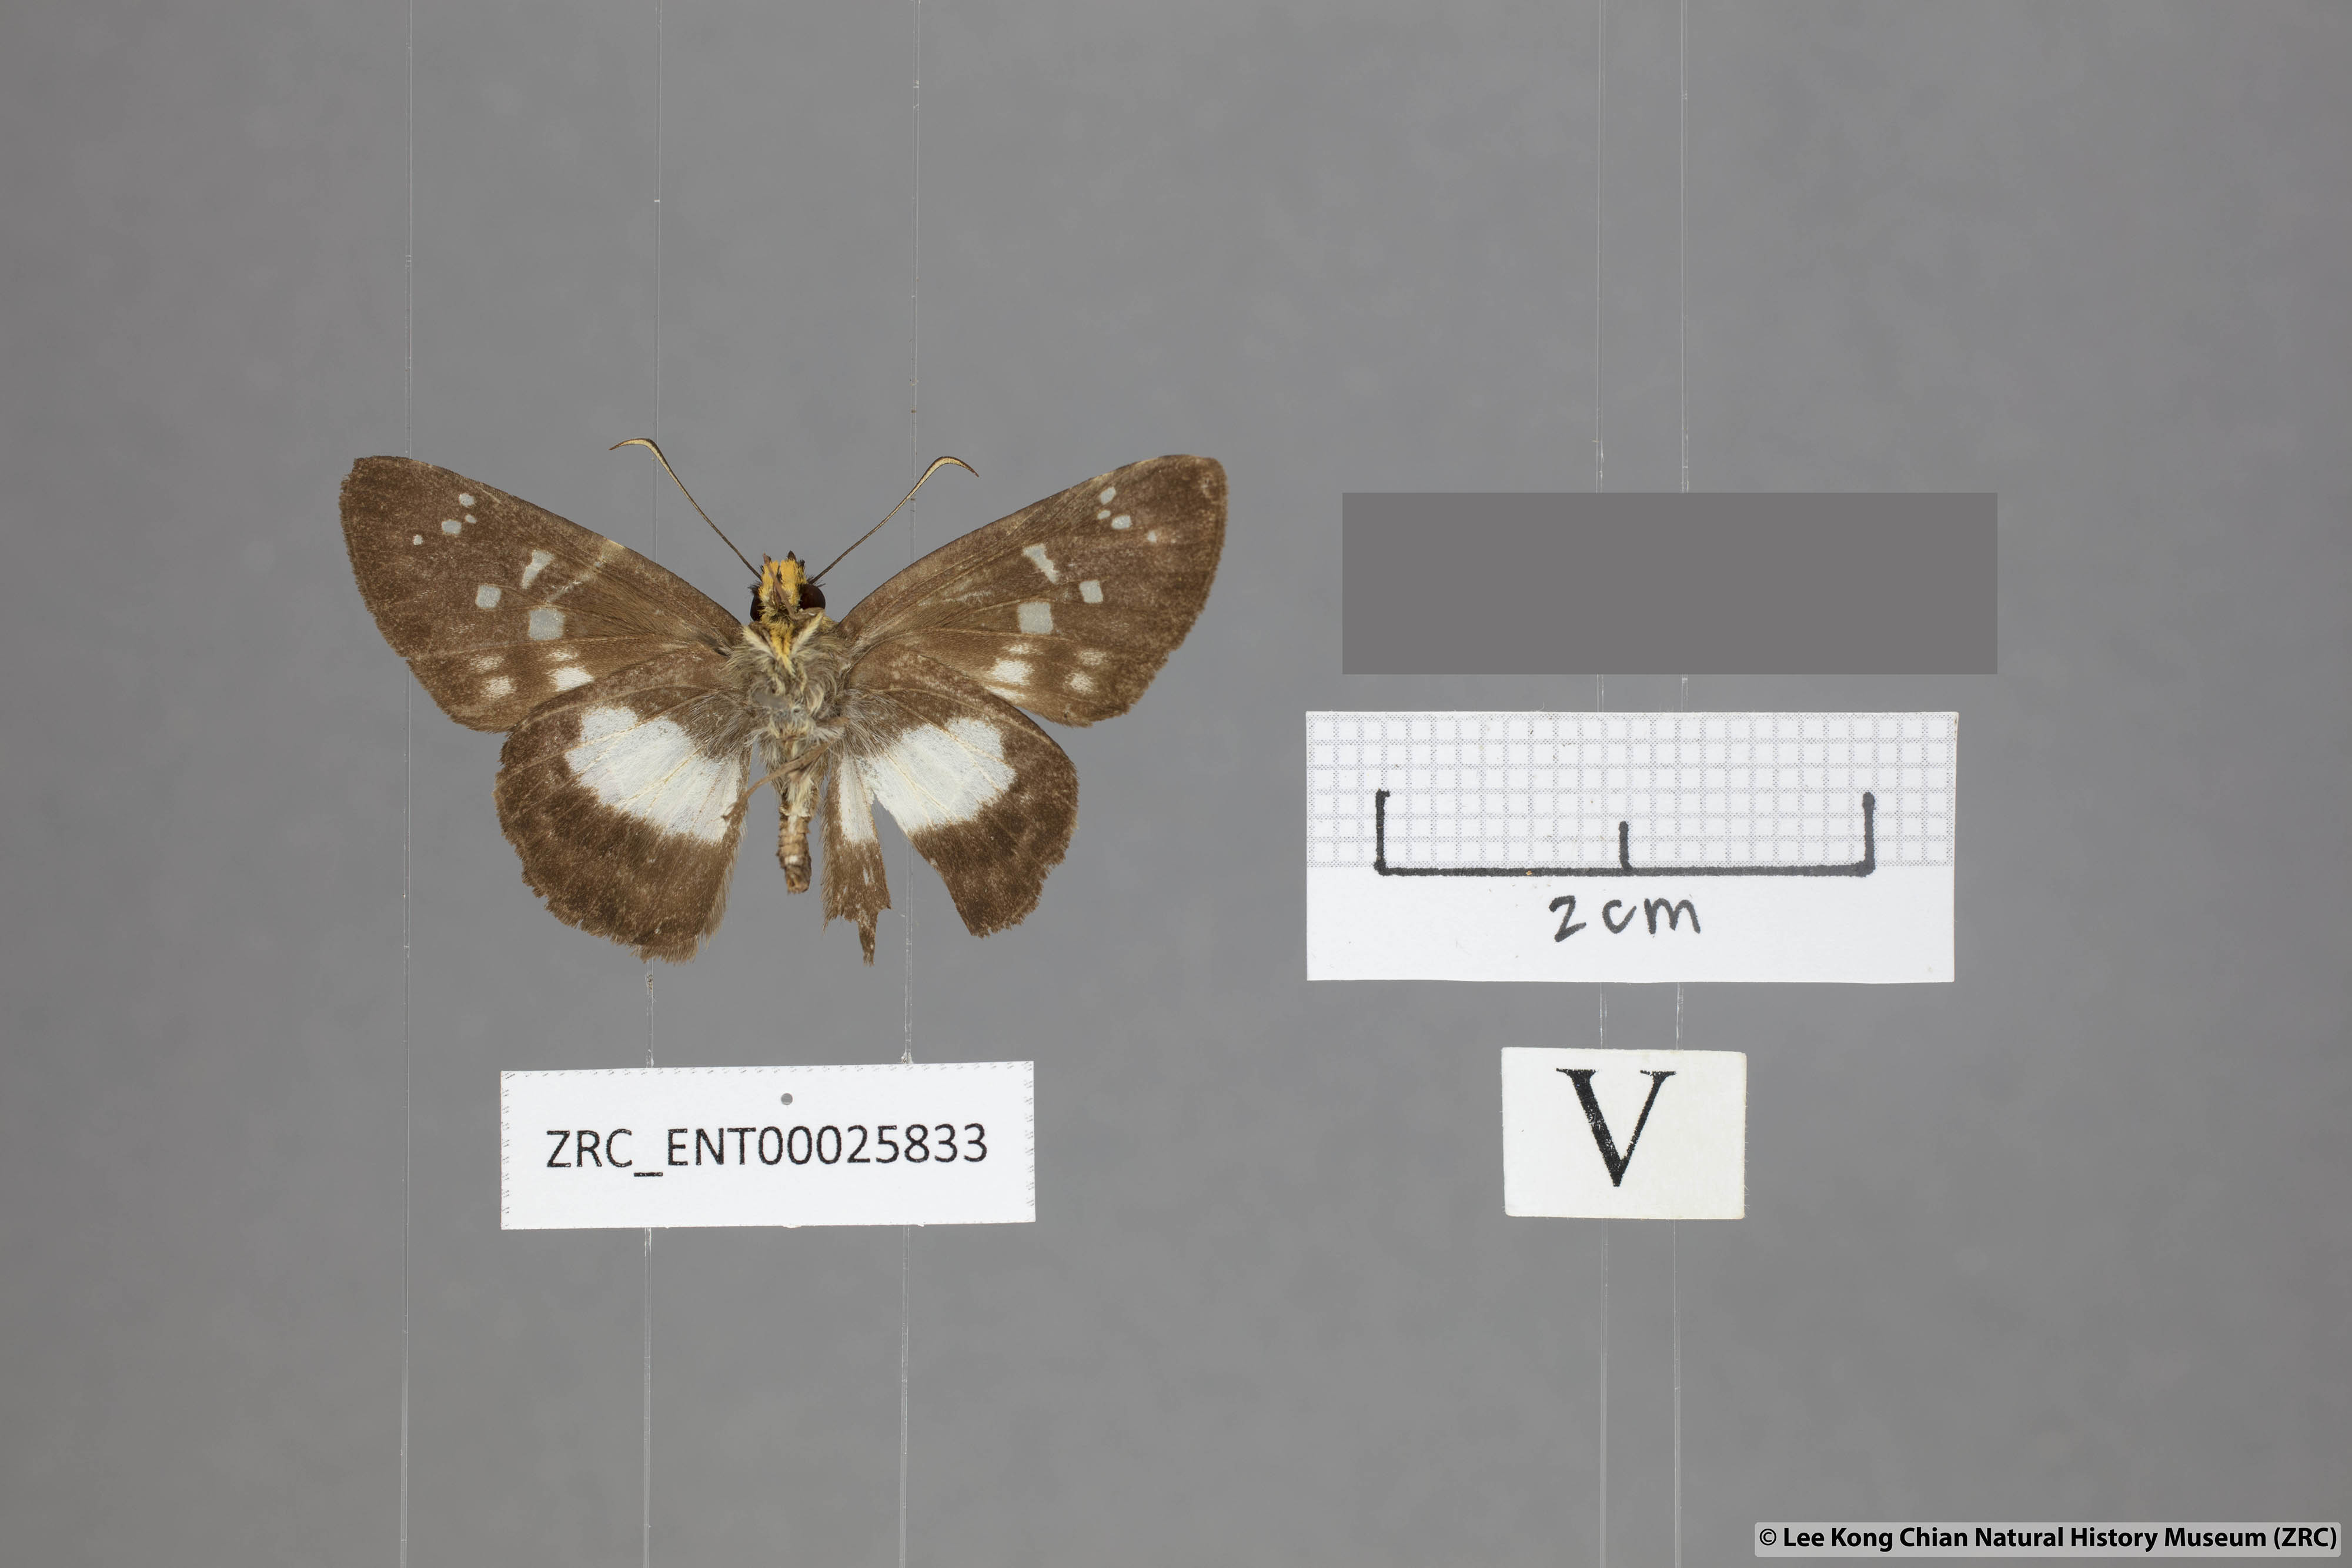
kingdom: Animalia
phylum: Arthropoda
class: Insecta
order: Lepidoptera
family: Hesperiidae
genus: Daimio
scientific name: Daimio
